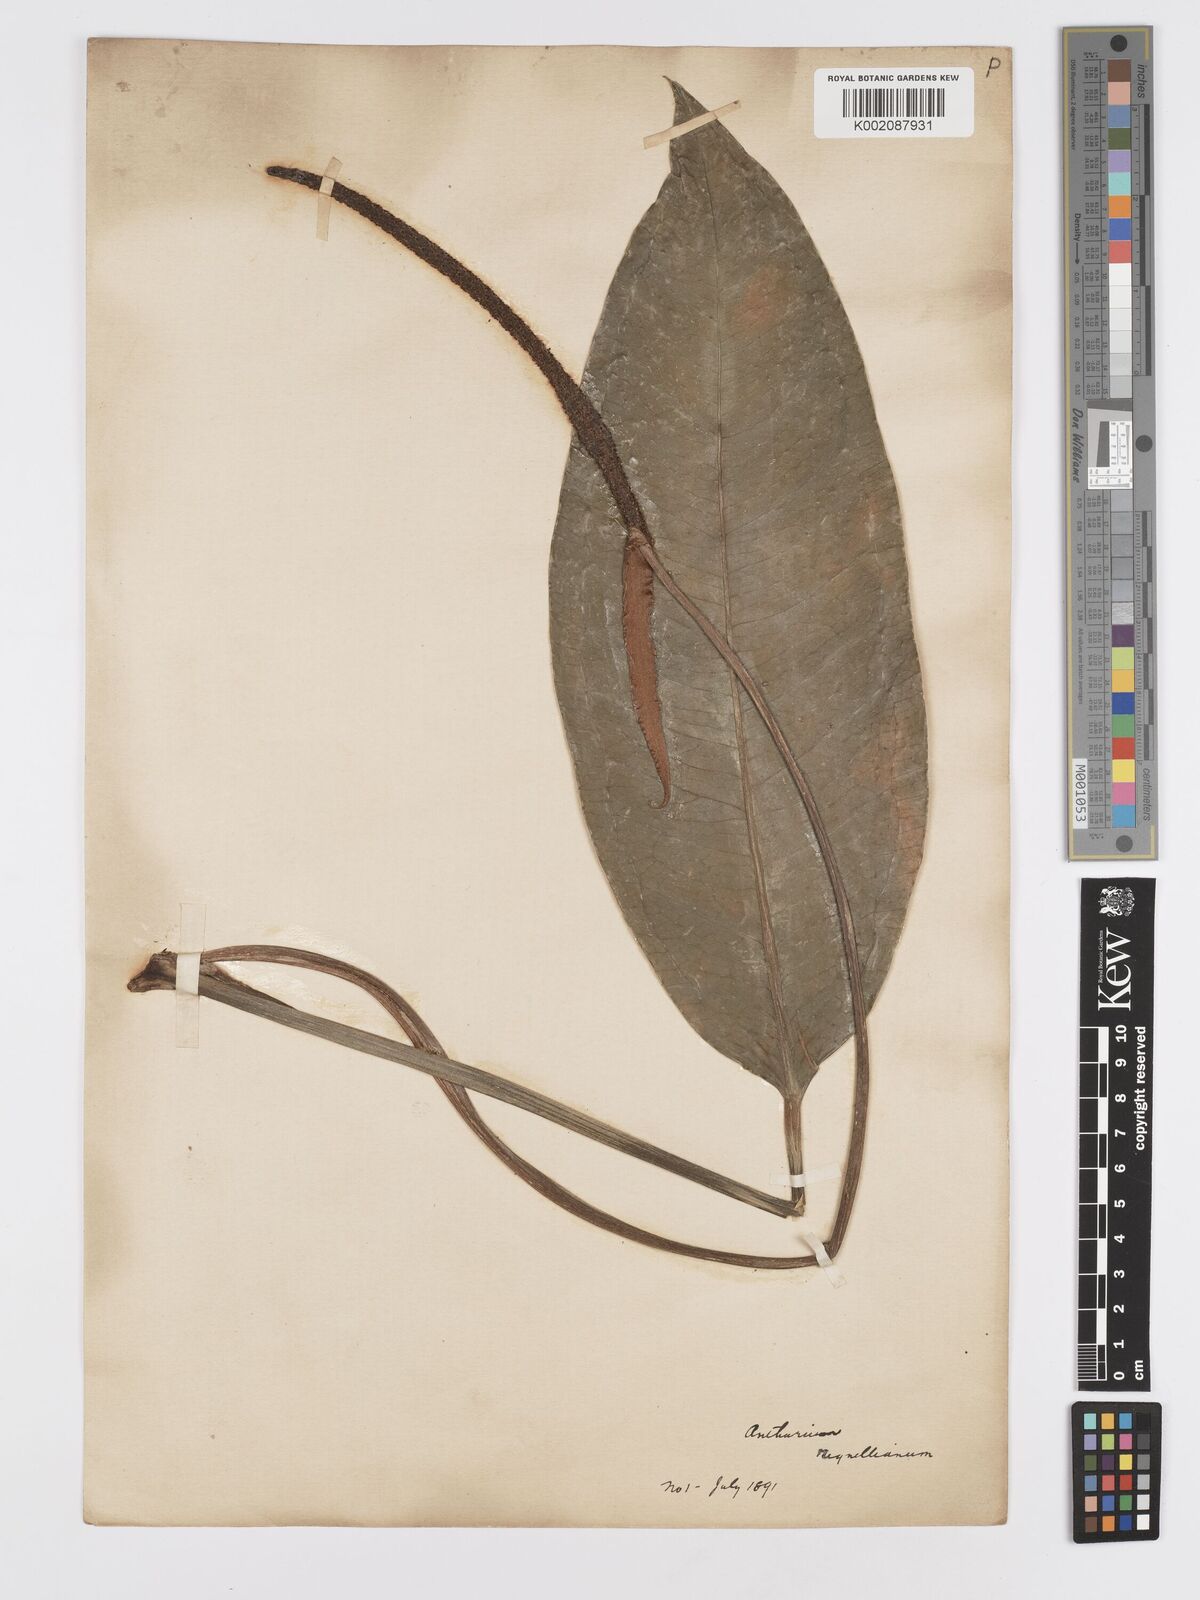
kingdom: Plantae
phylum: Tracheophyta
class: Liliopsida
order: Alismatales
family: Araceae
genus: Anthurium
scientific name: Anthurium sinuatum
